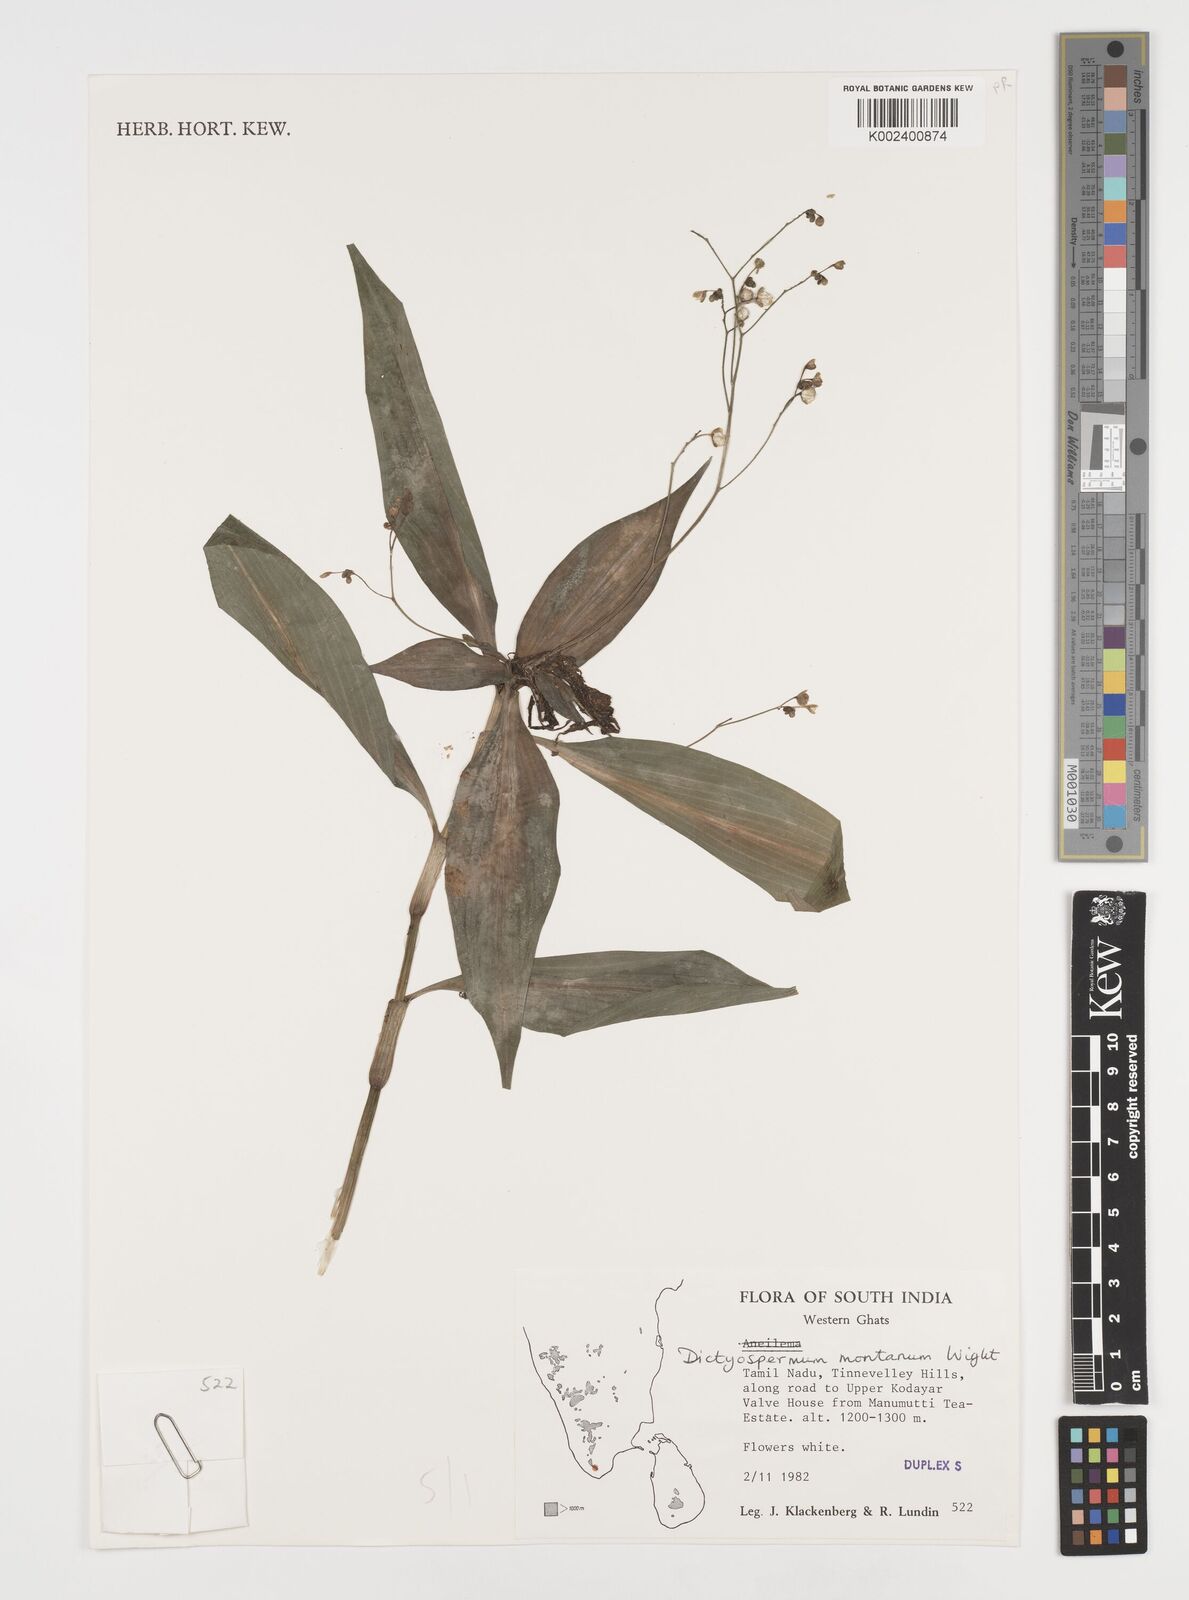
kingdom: Plantae
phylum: Tracheophyta
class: Liliopsida
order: Commelinales
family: Commelinaceae
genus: Dictyospermum
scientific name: Dictyospermum montanum
